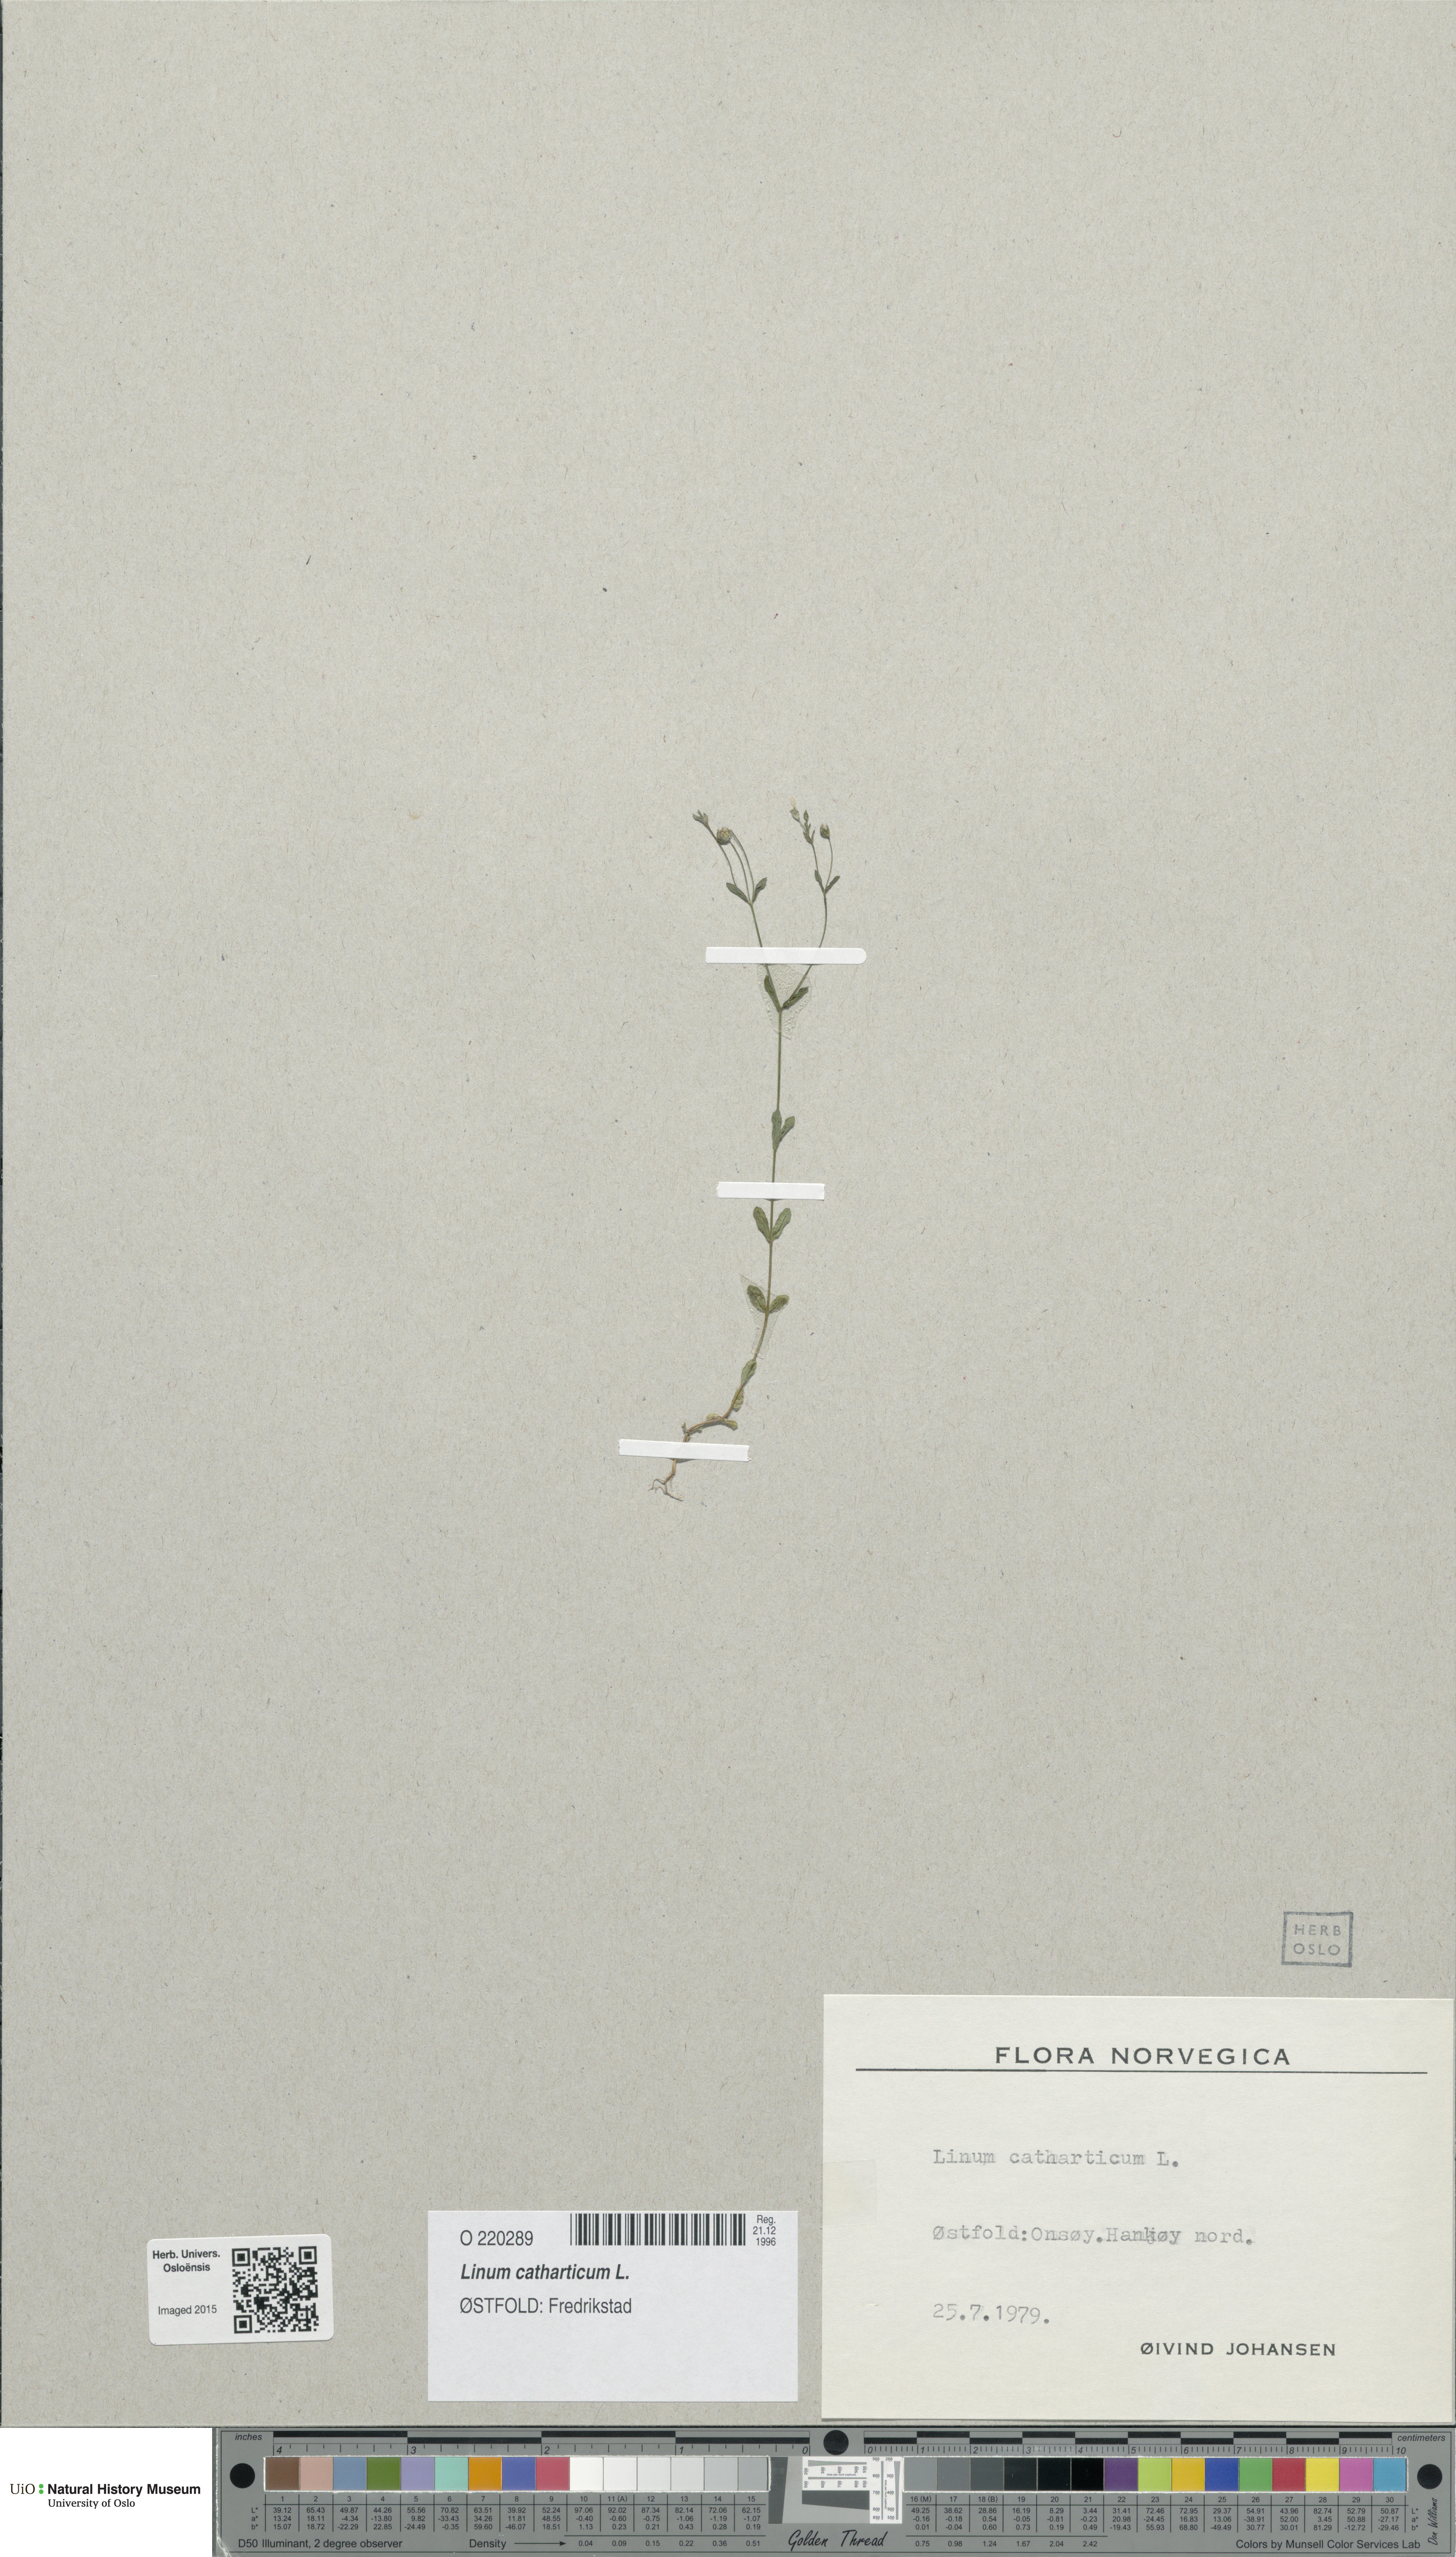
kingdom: Plantae
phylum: Tracheophyta
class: Magnoliopsida
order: Malpighiales
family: Linaceae
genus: Linum
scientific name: Linum catharticum
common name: Fairy flax
